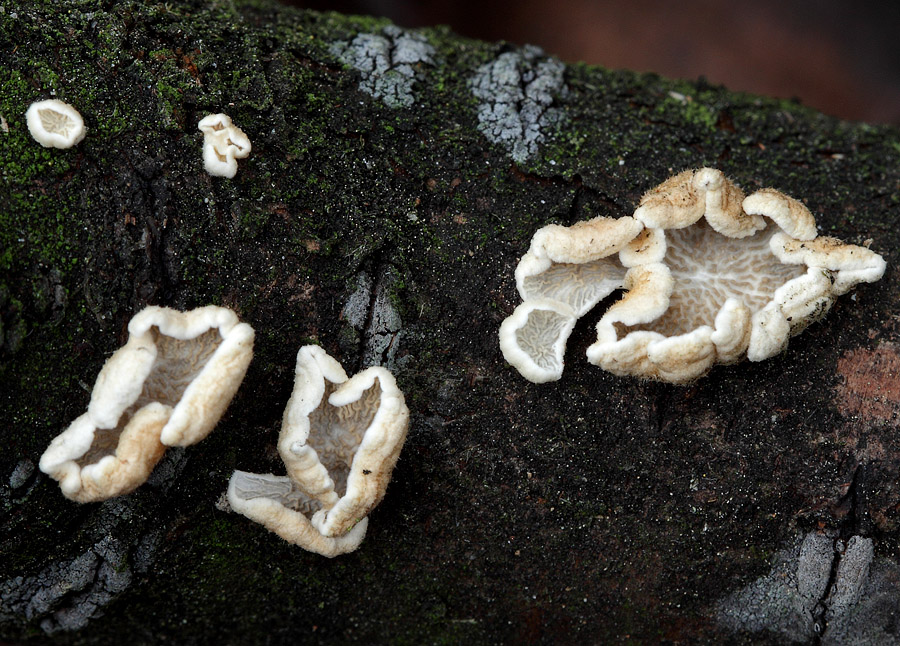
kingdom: Fungi
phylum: Basidiomycota
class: Agaricomycetes
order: Amylocorticiales
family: Amylocorticiaceae
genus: Plicaturopsis
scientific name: Plicaturopsis crispa
